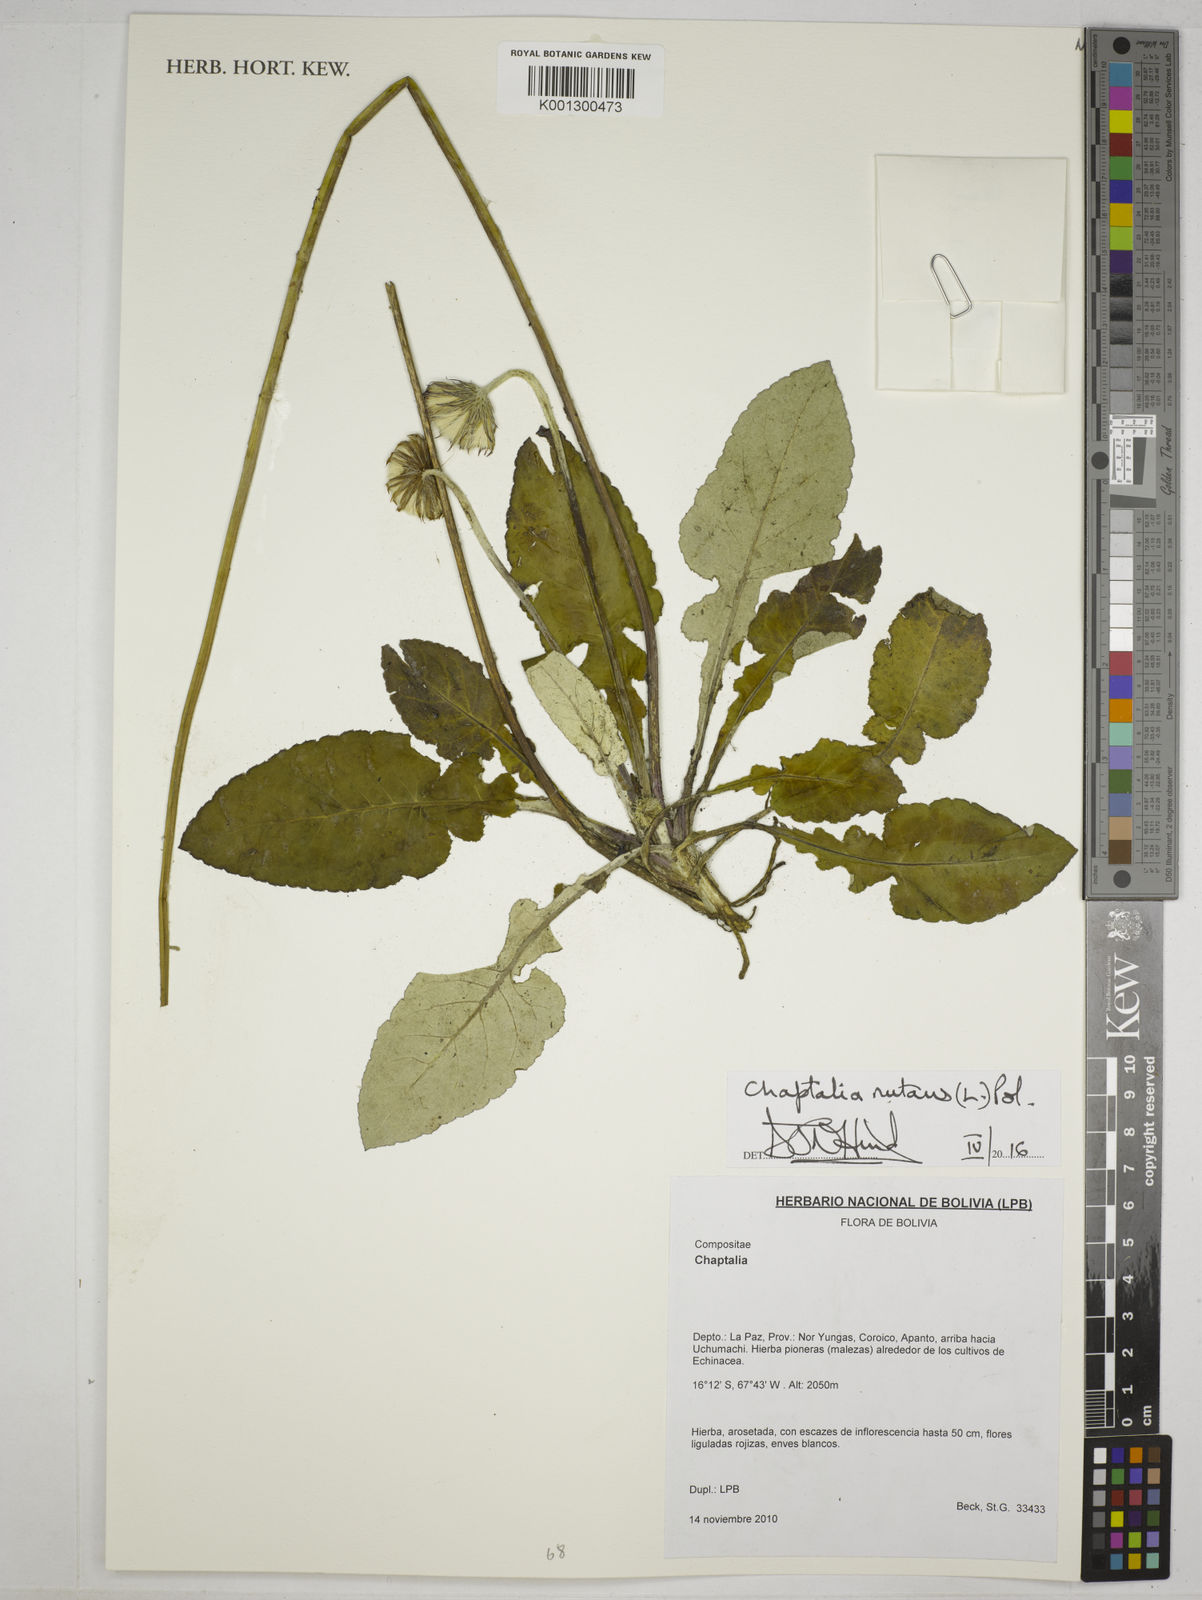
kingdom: Plantae
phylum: Tracheophyta
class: Magnoliopsida
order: Asterales
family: Asteraceae
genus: Chaptalia
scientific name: Chaptalia nutans
